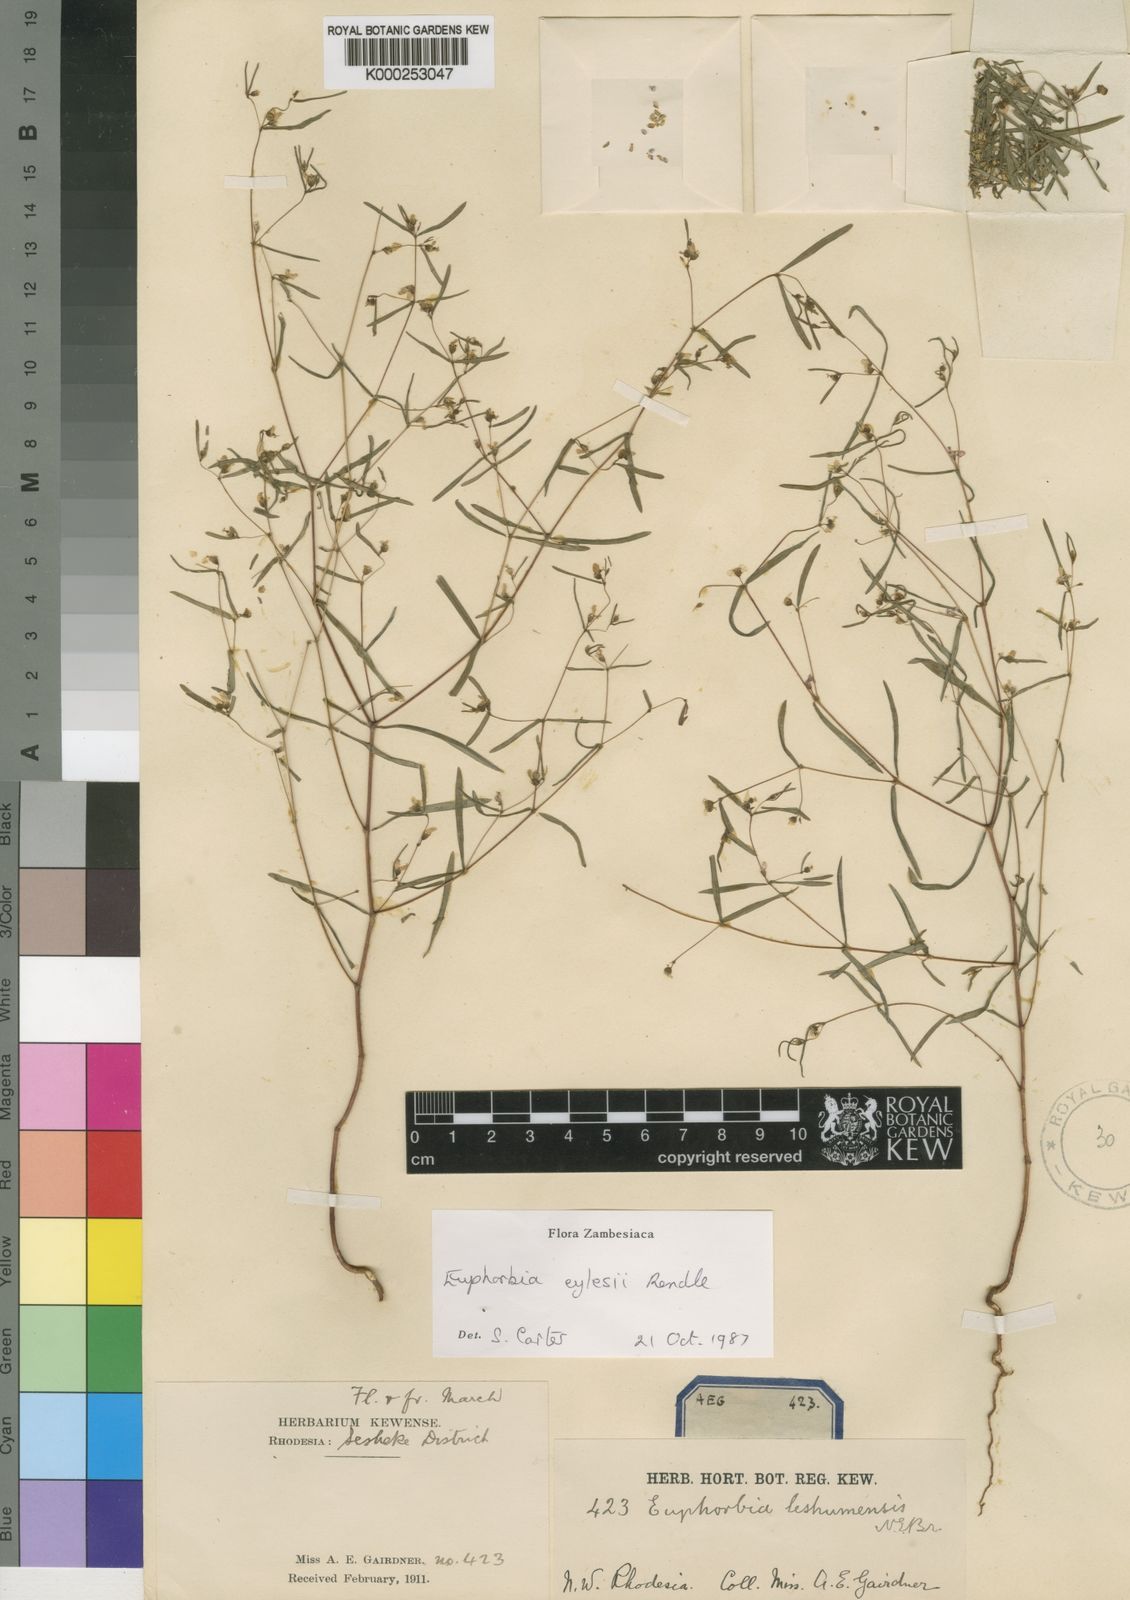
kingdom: Plantae
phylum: Tracheophyta
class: Magnoliopsida
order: Malpighiales
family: Euphorbiaceae
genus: Euphorbia
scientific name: Euphorbia eylesii
